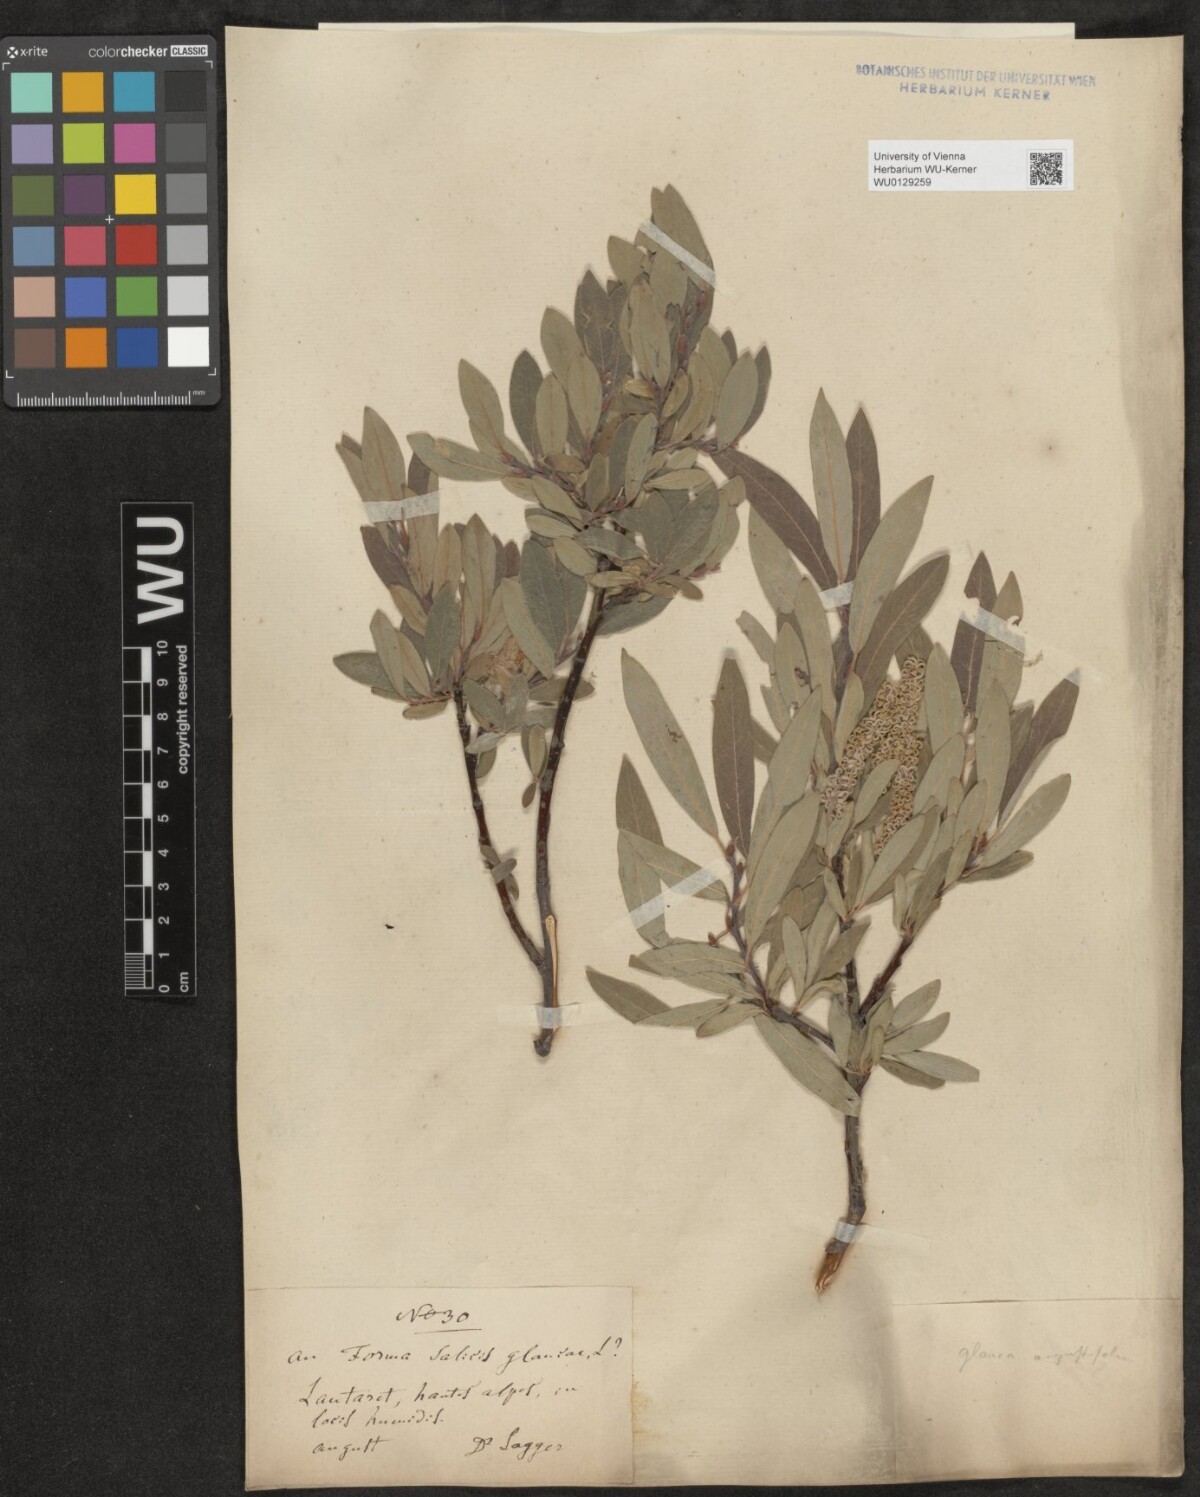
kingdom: Plantae
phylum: Tracheophyta
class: Magnoliopsida
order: Malpighiales
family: Salicaceae
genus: Salix
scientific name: Salix glauca
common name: Glaucous willow
